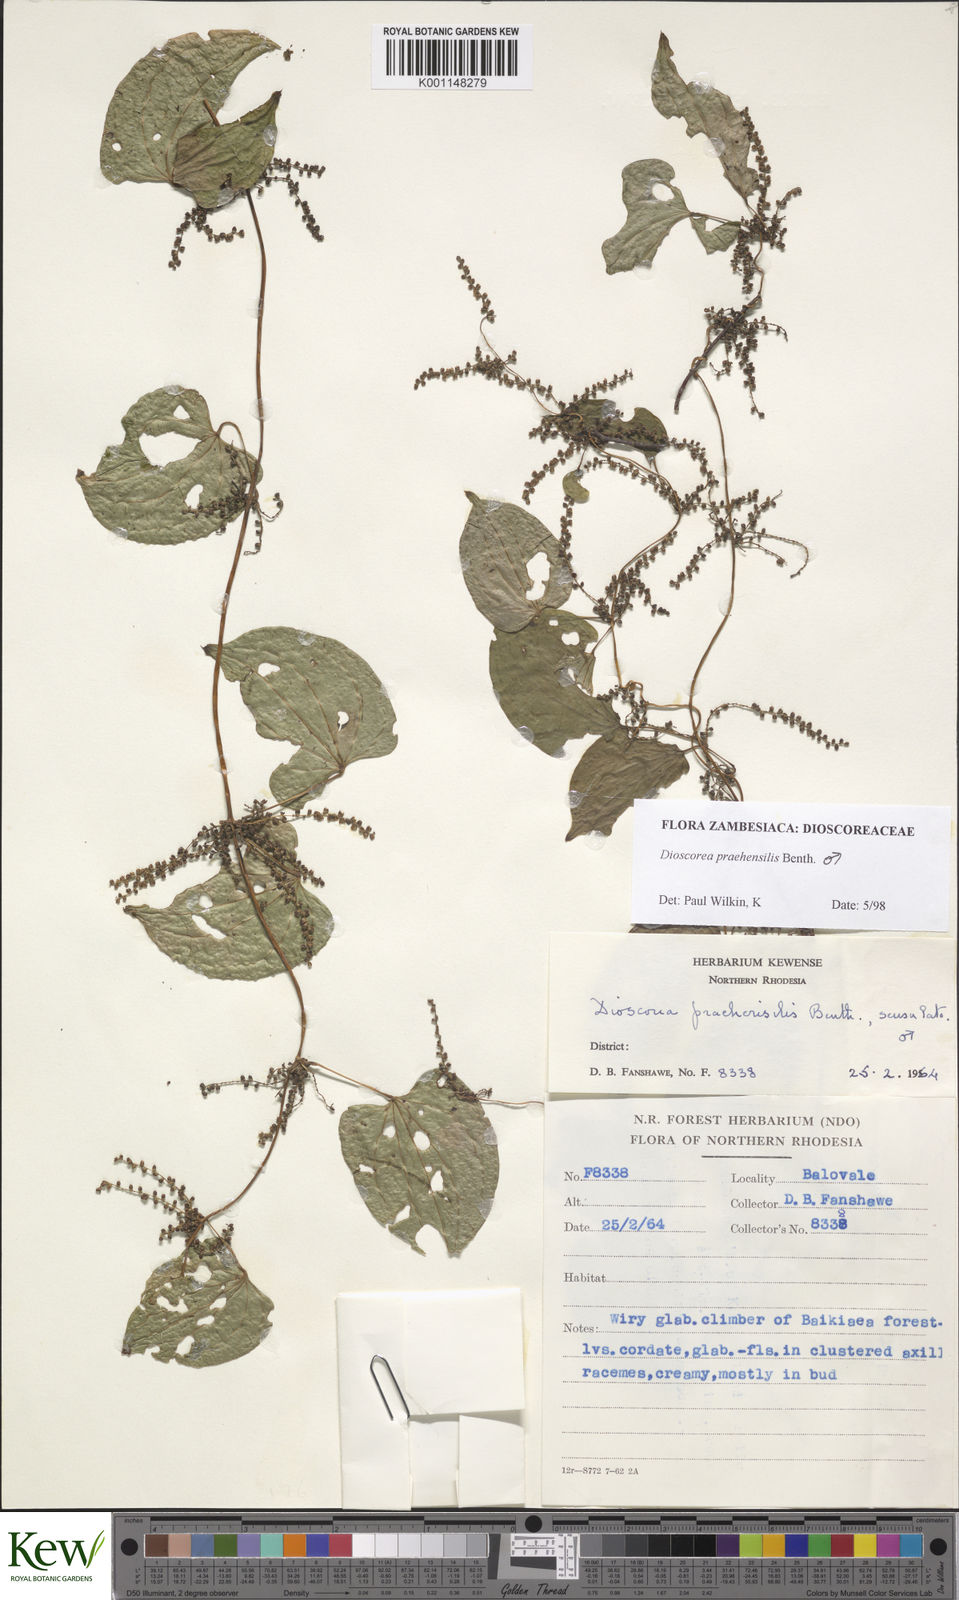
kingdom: Plantae
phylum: Tracheophyta
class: Liliopsida
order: Dioscoreales
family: Dioscoreaceae
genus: Dioscorea
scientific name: Dioscorea praehensilis
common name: Bush yam
